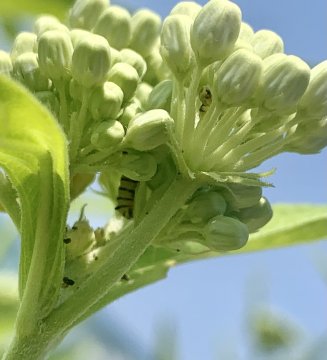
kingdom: Animalia
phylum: Arthropoda
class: Insecta
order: Lepidoptera
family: Nymphalidae
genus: Danaus
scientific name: Danaus plexippus
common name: Monarch
